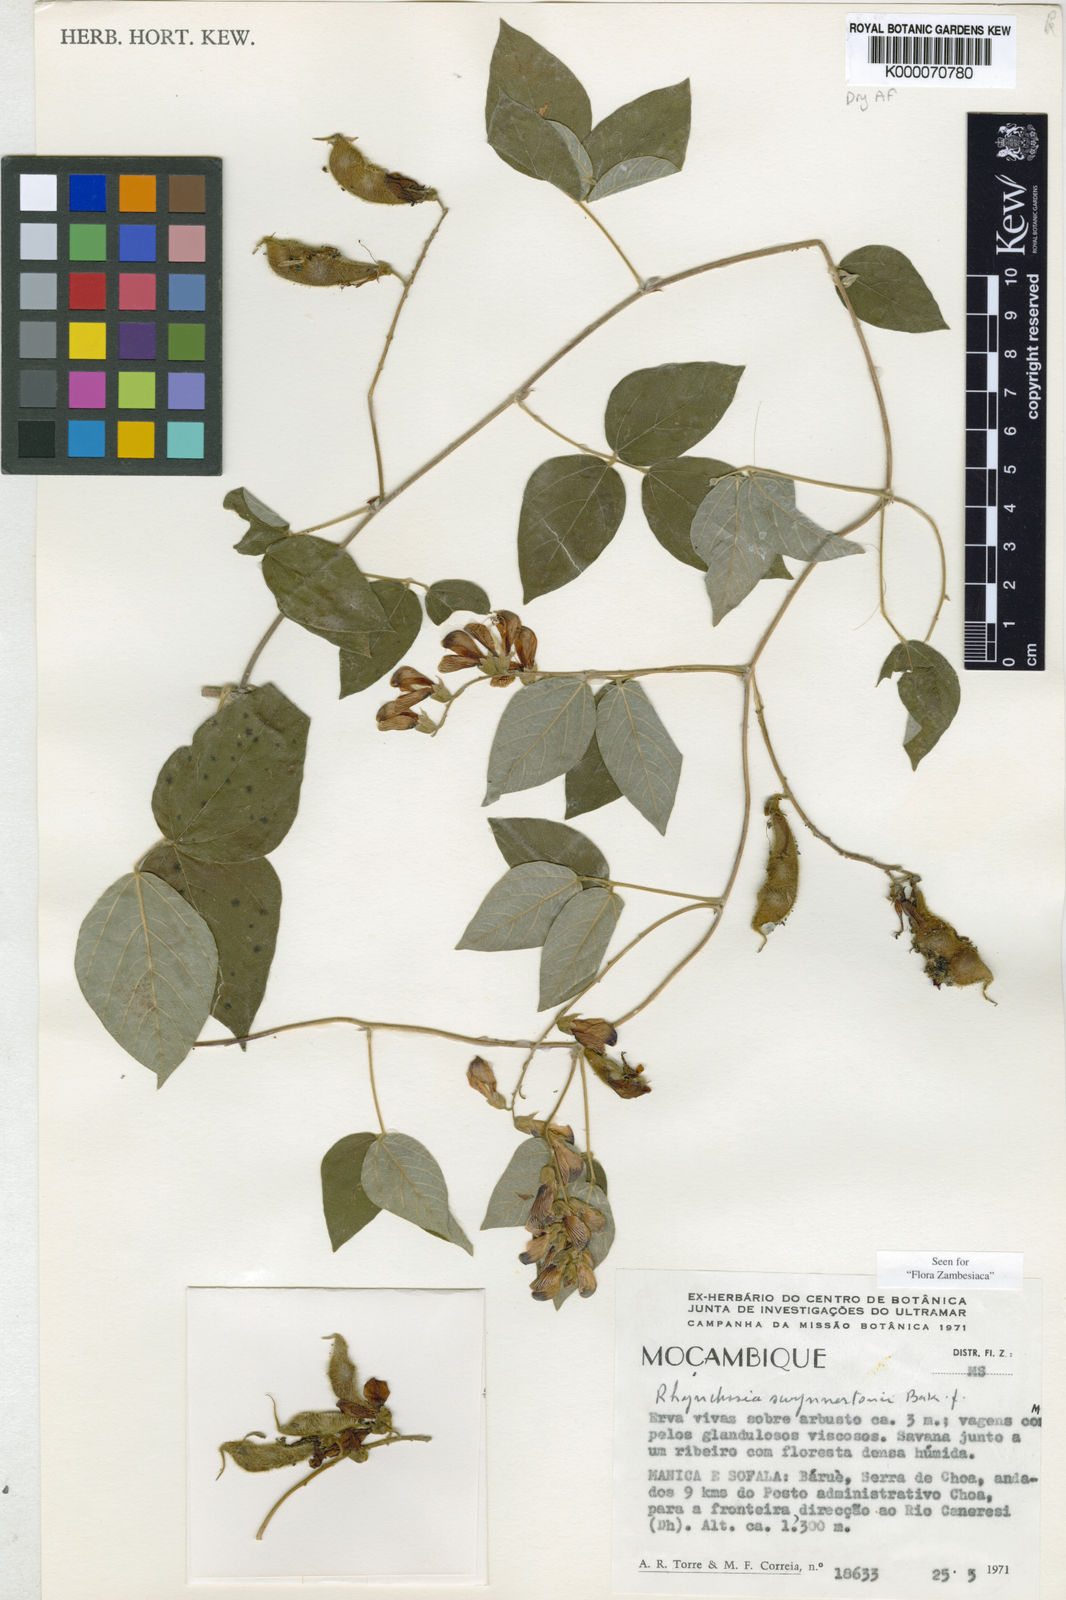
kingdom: Plantae
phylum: Tracheophyta
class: Magnoliopsida
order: Fabales
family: Fabaceae
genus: Rhynchosia
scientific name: Rhynchosia swynnertonii
